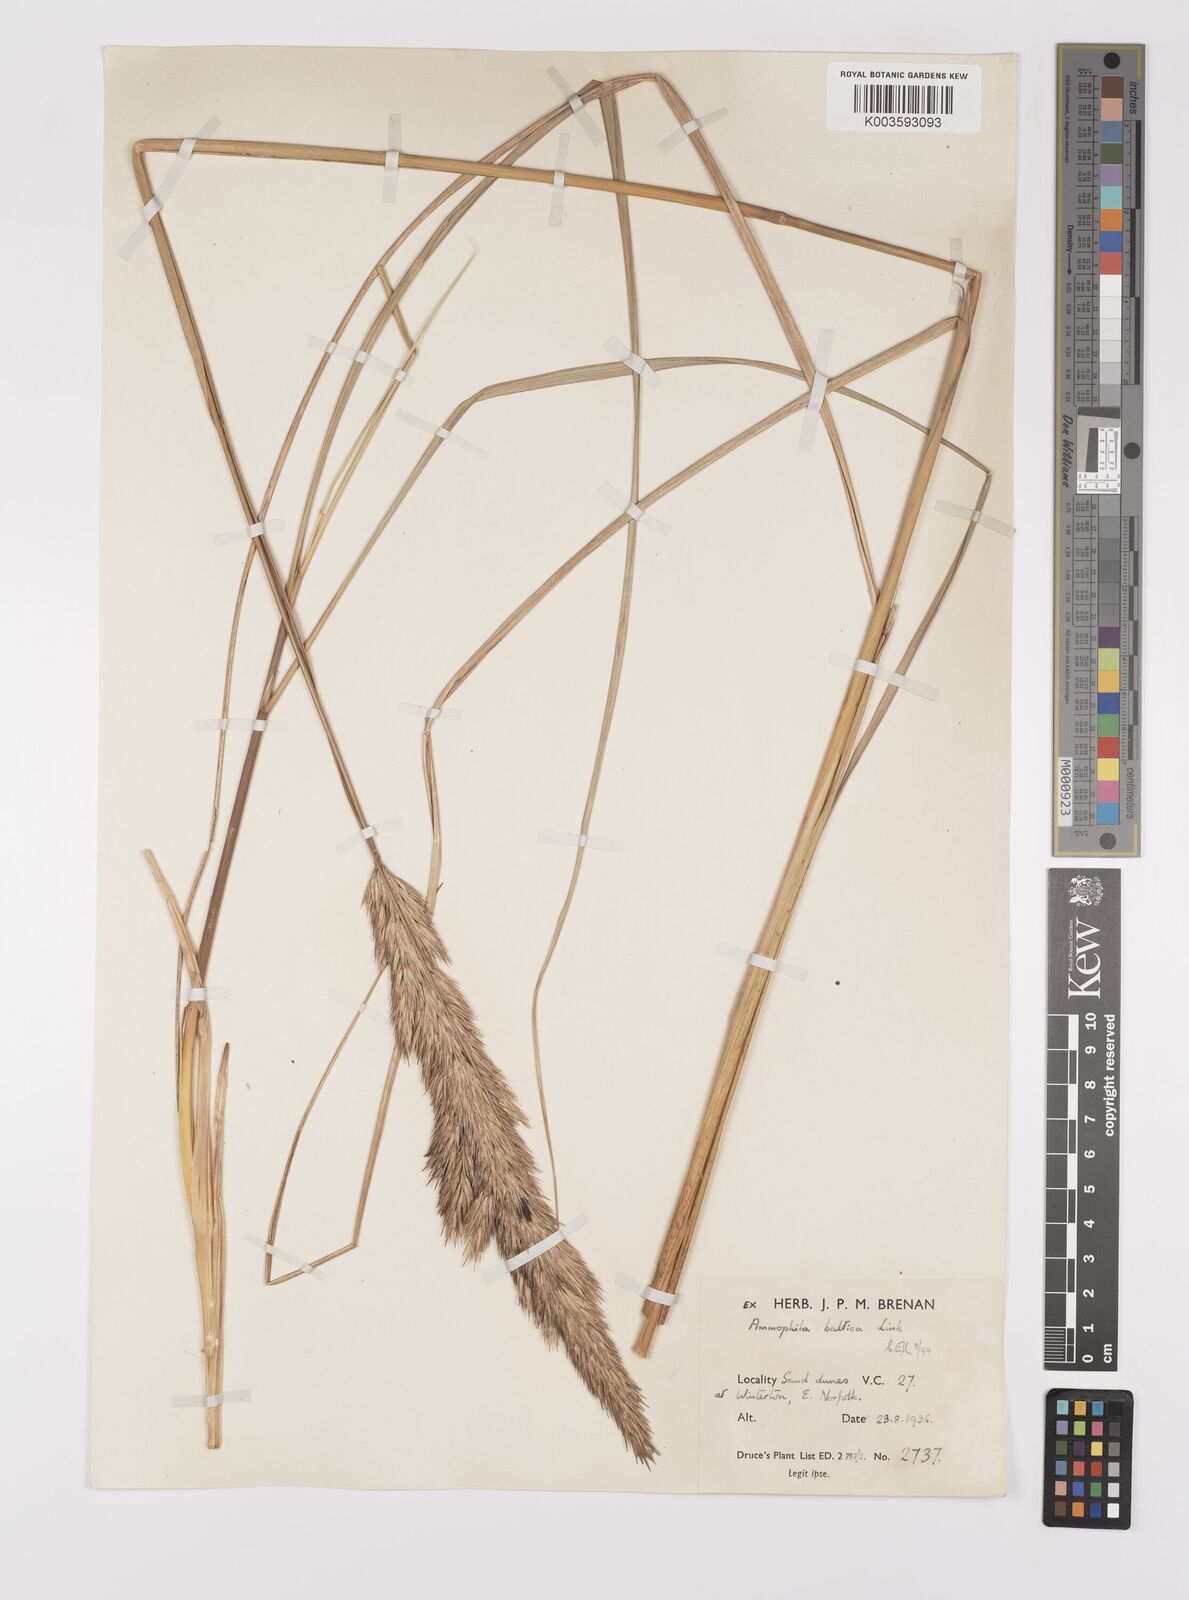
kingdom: Plantae
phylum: Tracheophyta
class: Liliopsida
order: Poales
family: Poaceae
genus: Calamagrostis
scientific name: Calamagrostis baltica
